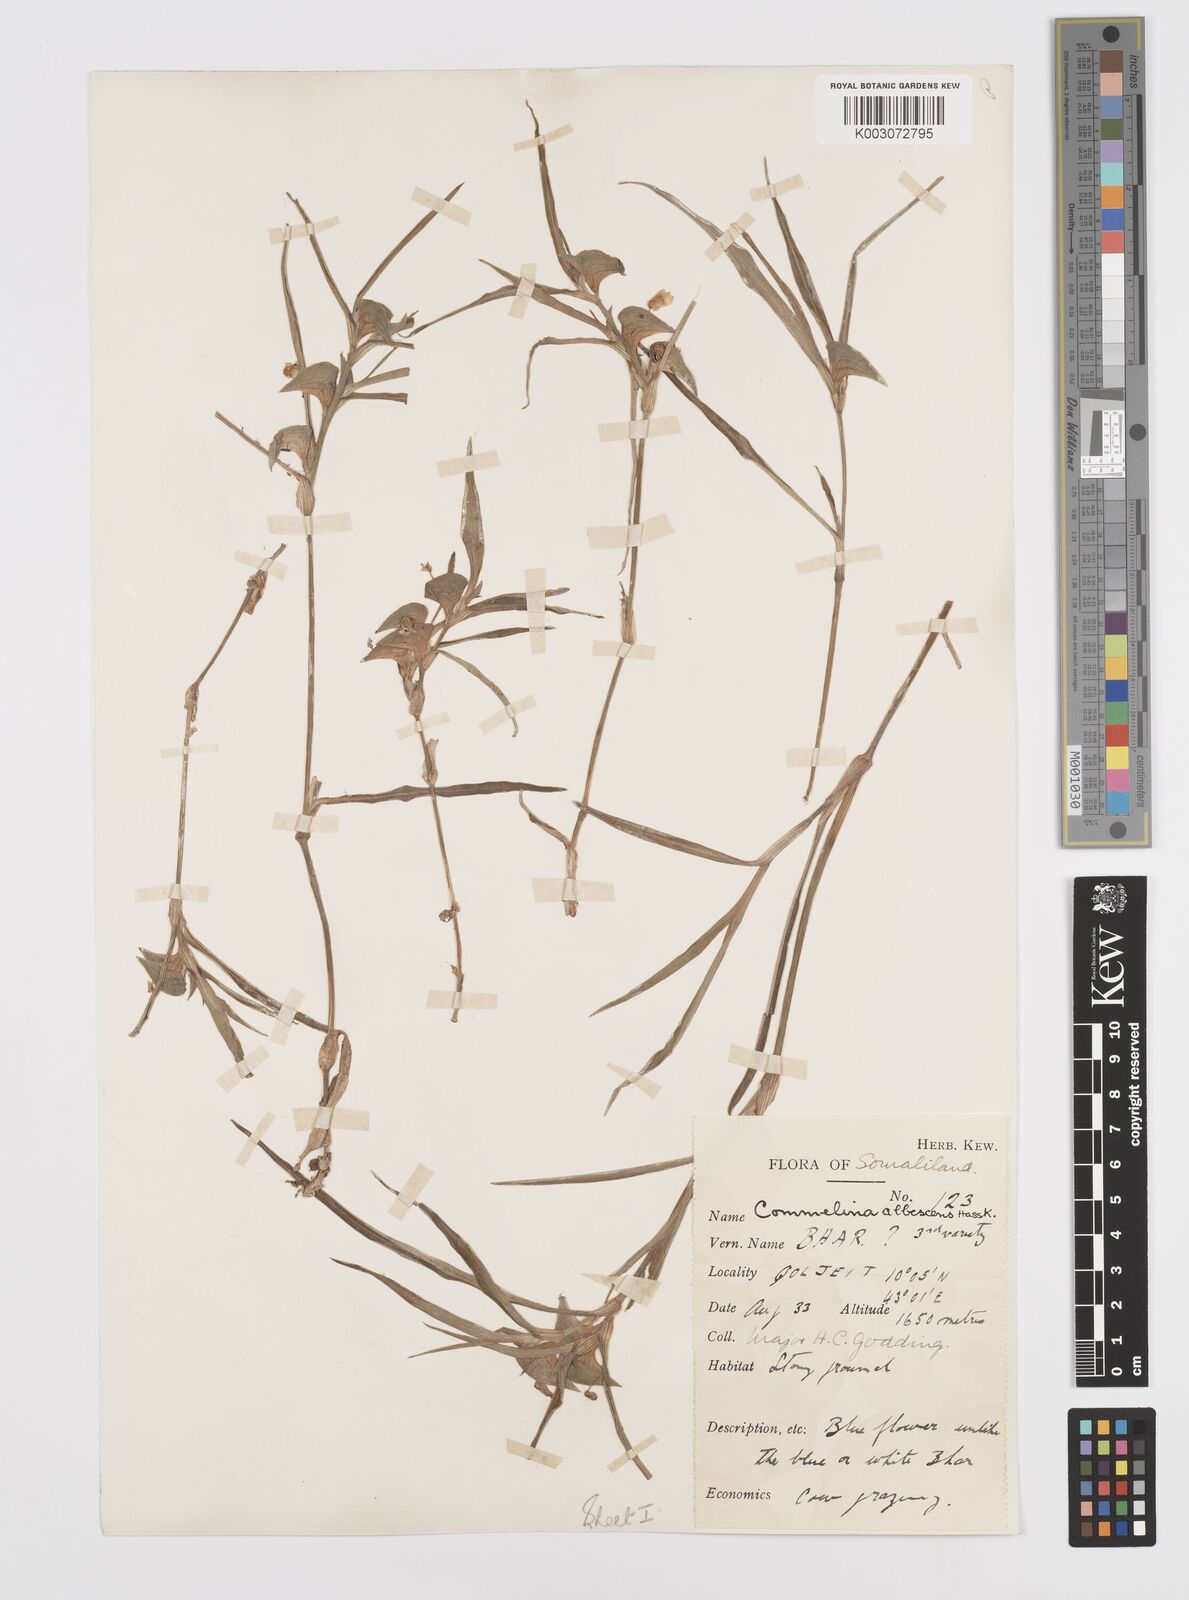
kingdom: Plantae
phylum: Tracheophyta
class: Liliopsida
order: Commelinales
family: Commelinaceae
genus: Commelina
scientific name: Commelina albescens
